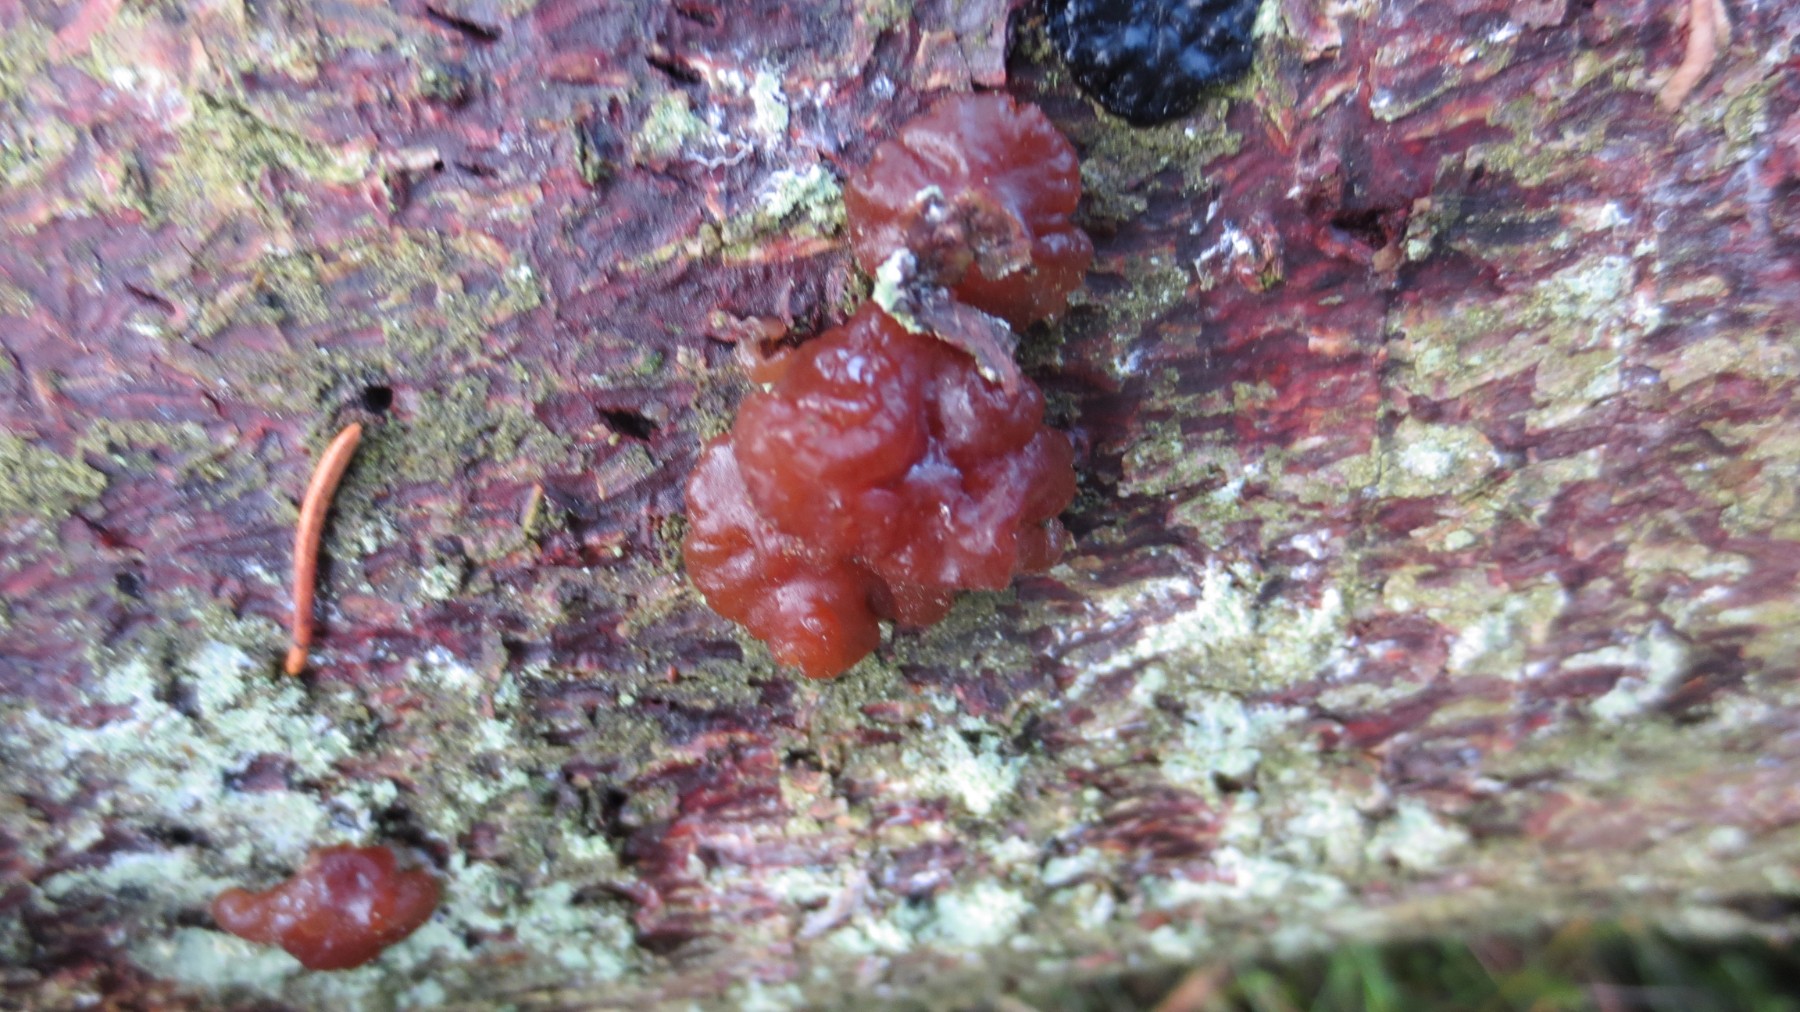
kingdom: Fungi
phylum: Basidiomycota
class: Agaricomycetes
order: Auriculariales
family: Auriculariaceae
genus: Exidia
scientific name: Exidia saccharina
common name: kandis-bævretop
